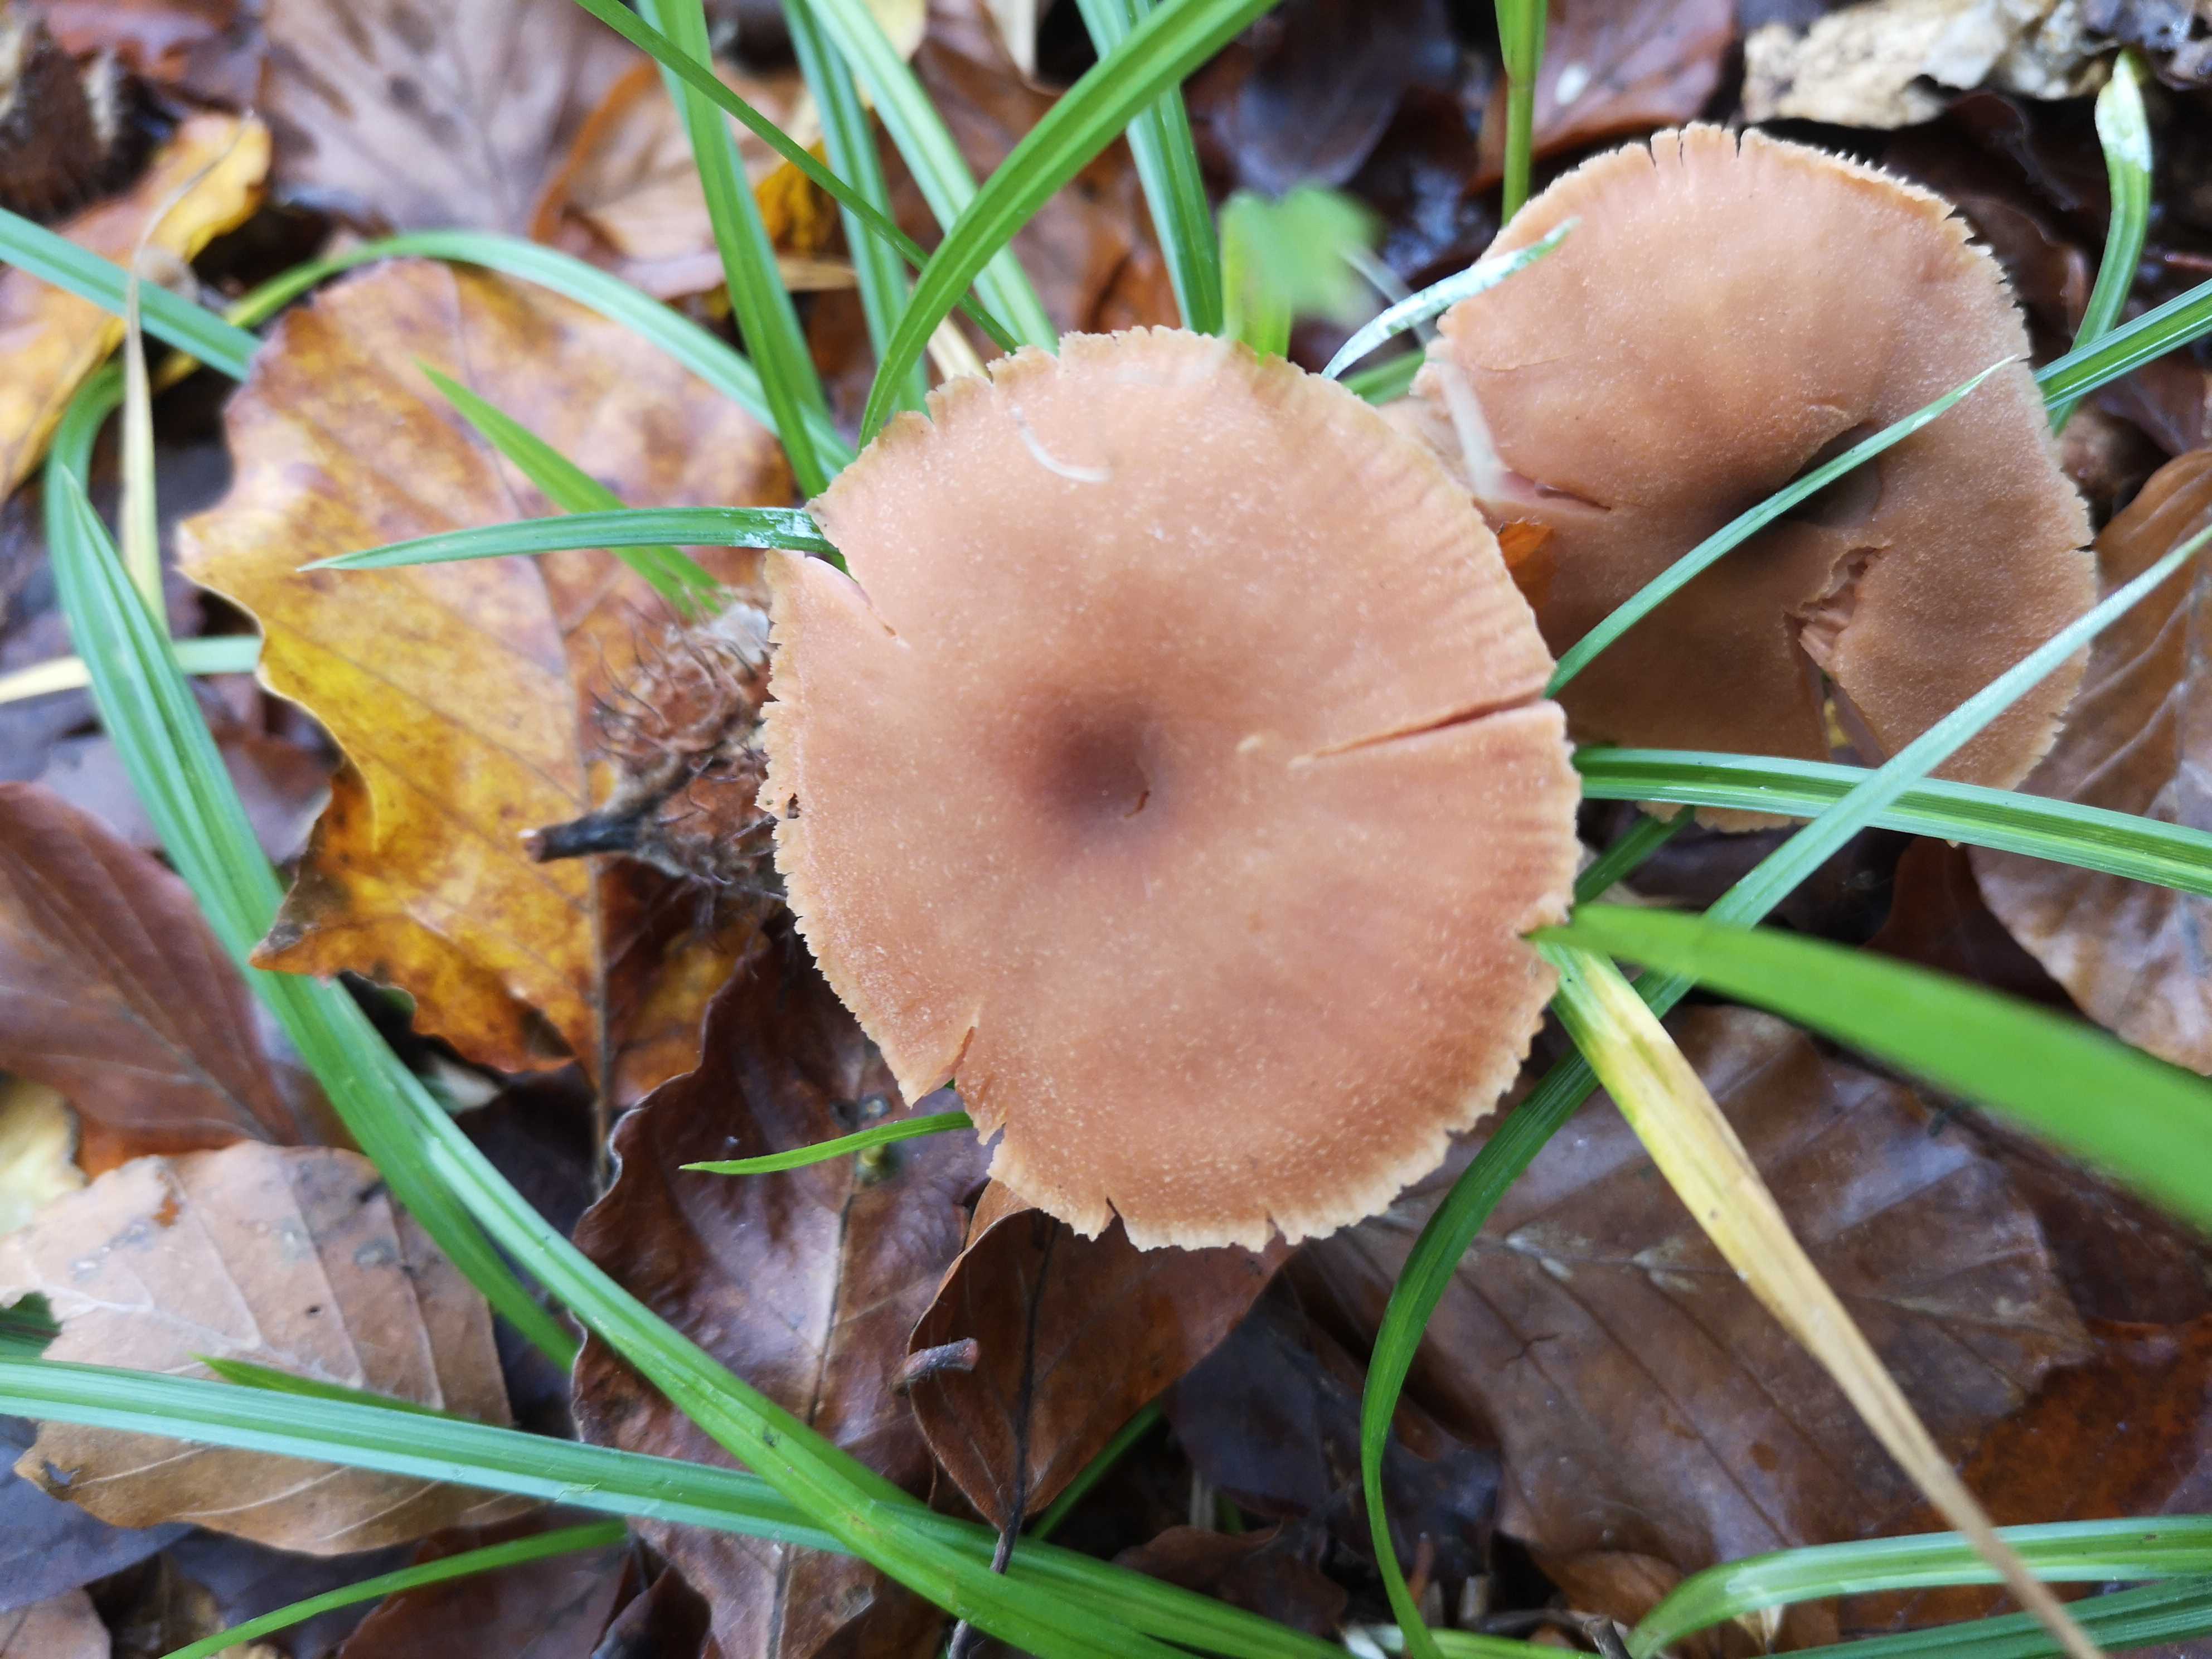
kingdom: Fungi
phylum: Basidiomycota
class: Agaricomycetes
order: Agaricales
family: Hydnangiaceae
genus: Laccaria
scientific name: Laccaria laccata
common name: rød ametysthat
